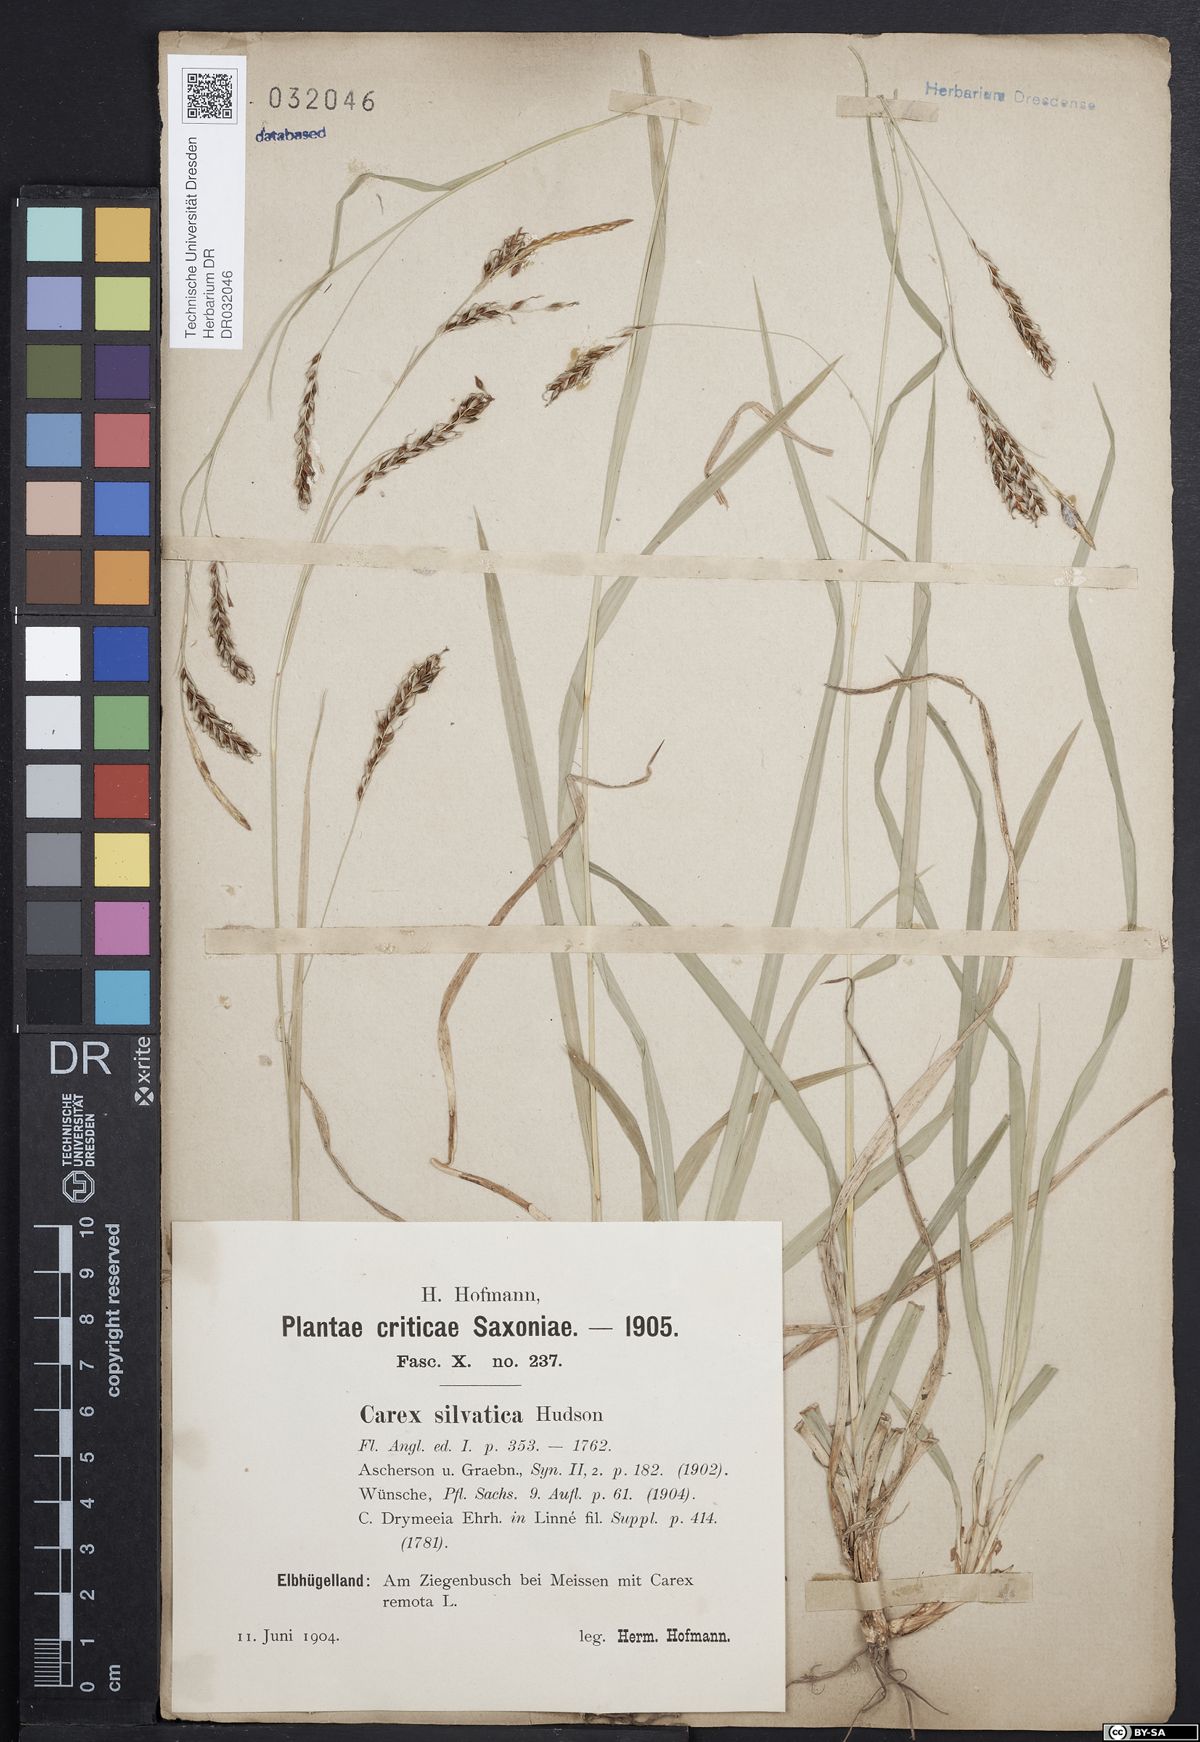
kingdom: Plantae
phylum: Tracheophyta
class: Liliopsida
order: Poales
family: Cyperaceae
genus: Carex
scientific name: Carex sylvatica
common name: Wood-sedge
